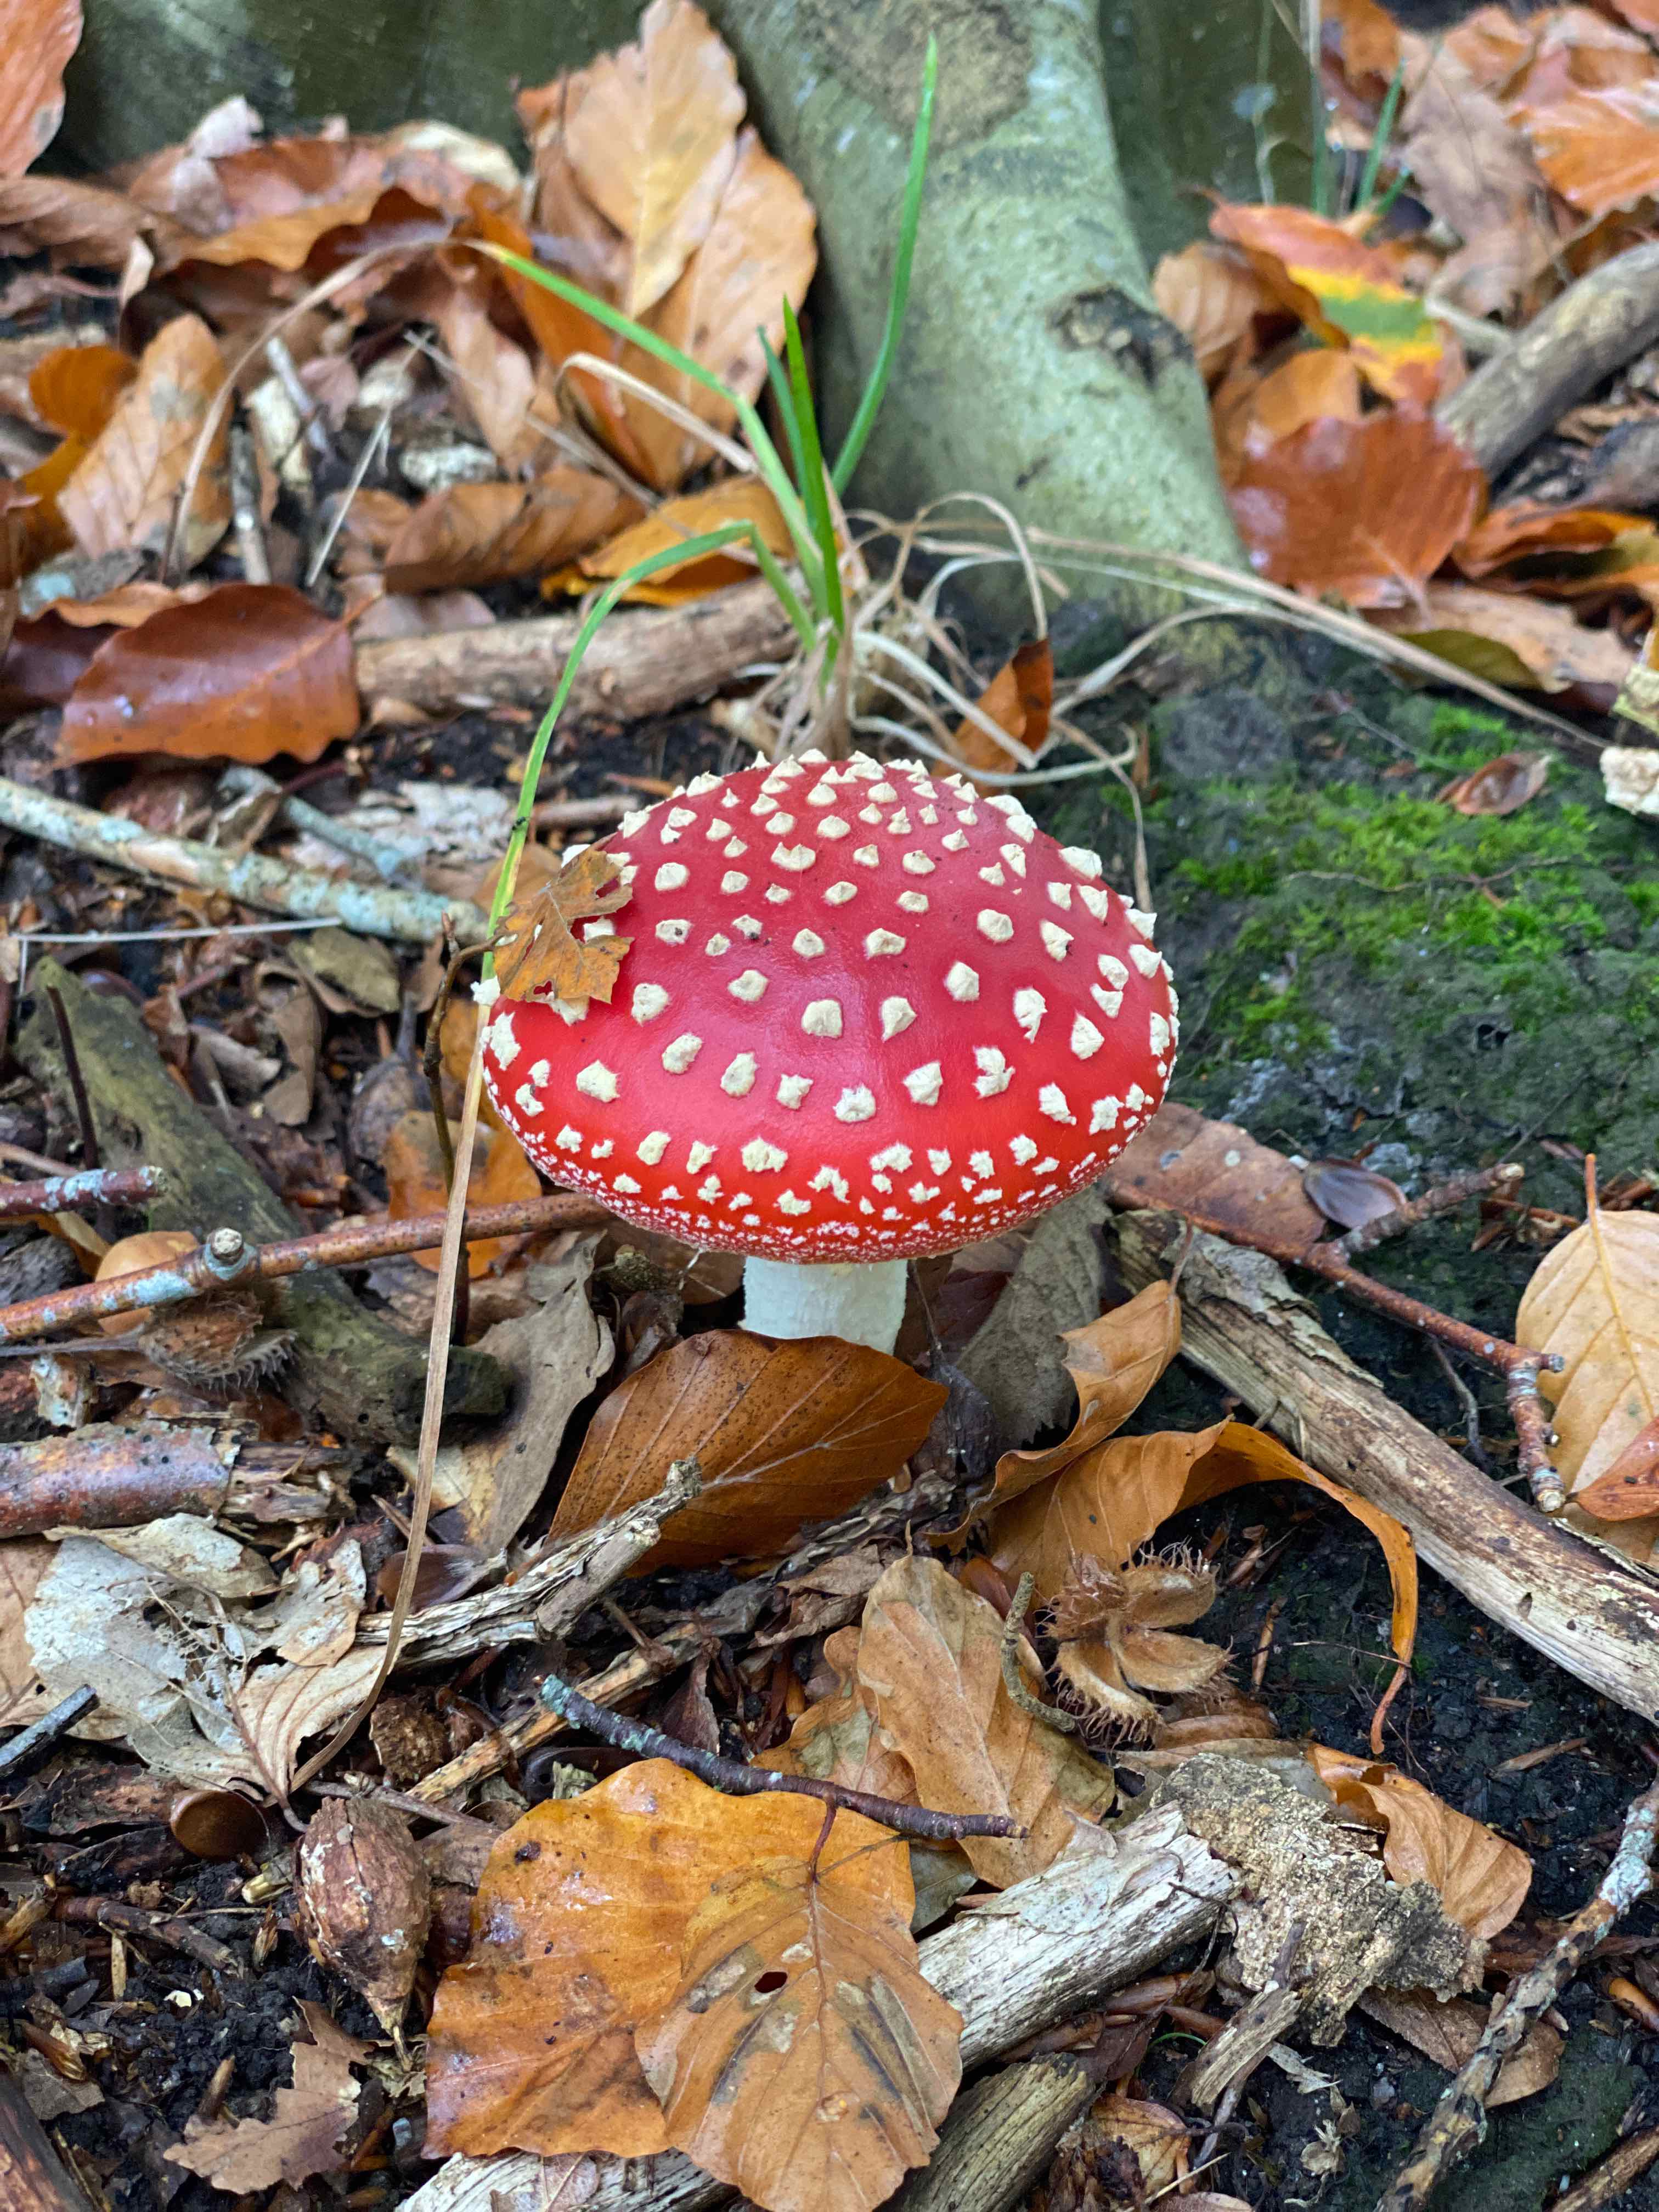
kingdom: Fungi
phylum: Basidiomycota
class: Agaricomycetes
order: Agaricales
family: Amanitaceae
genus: Amanita
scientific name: Amanita muscaria
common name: rød fluesvamp
